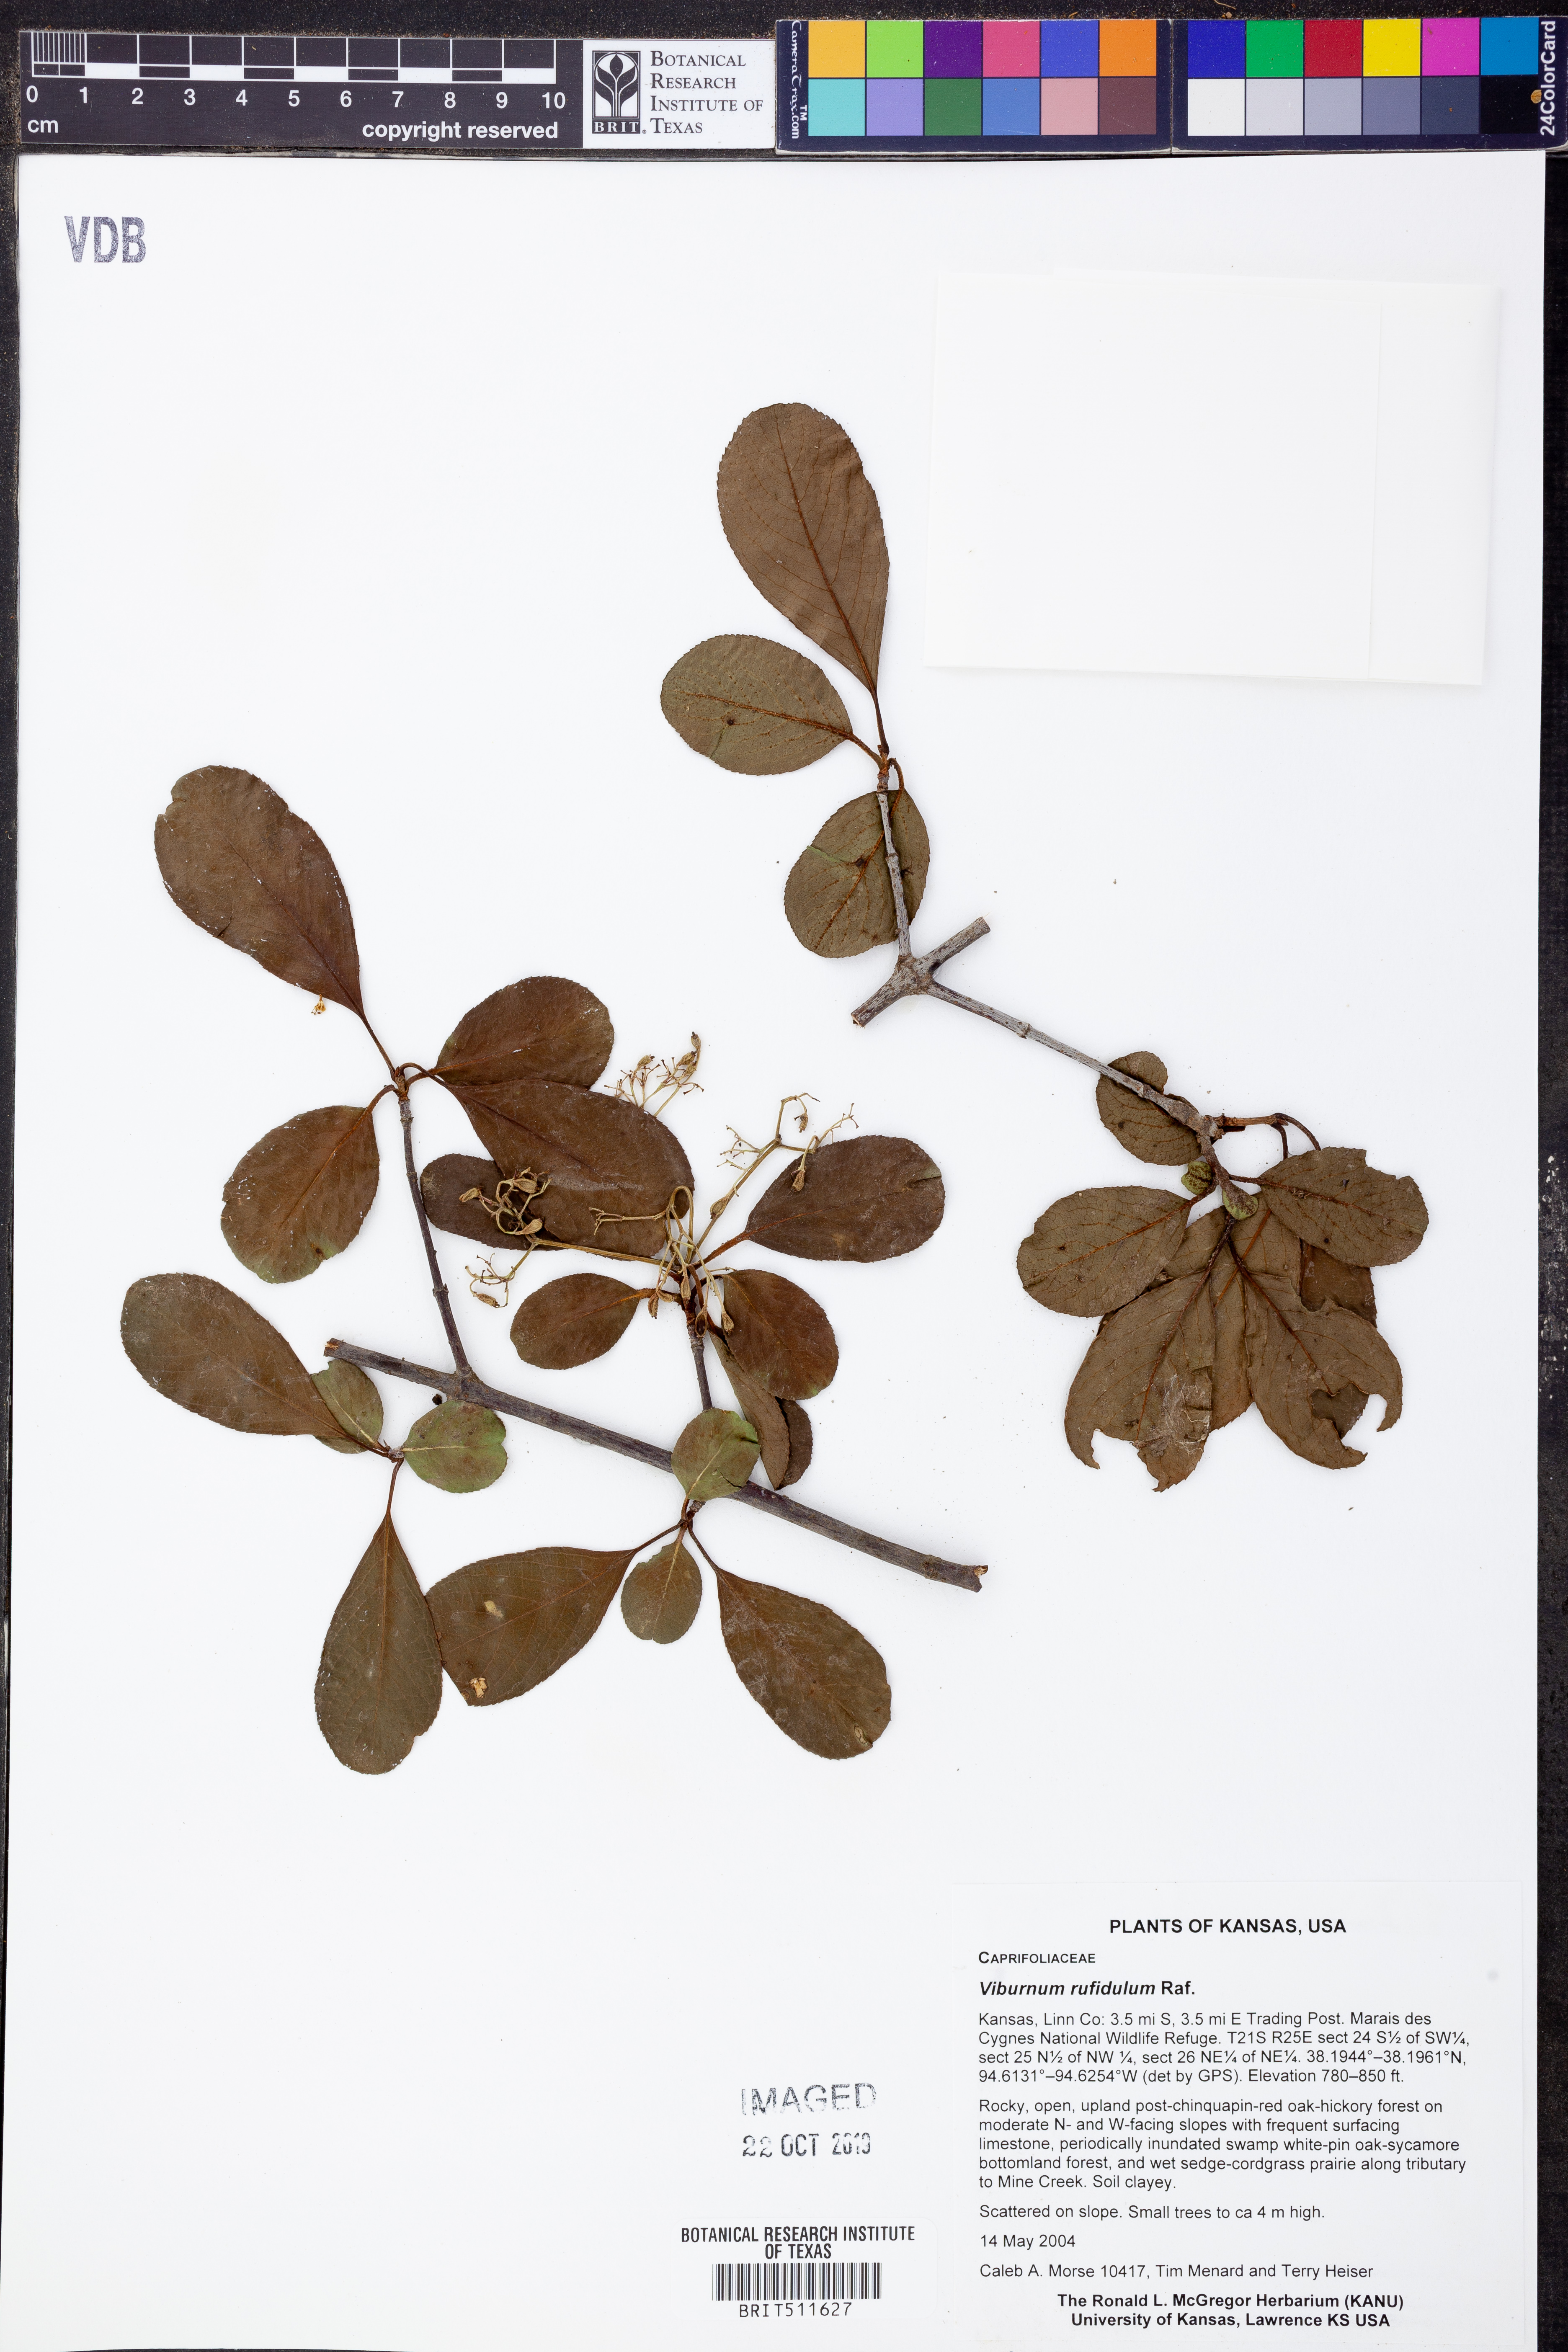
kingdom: Plantae
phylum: Tracheophyta
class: Magnoliopsida
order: Dipsacales
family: Viburnaceae
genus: Viburnum
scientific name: Viburnum rufidulum
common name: Blue haw
